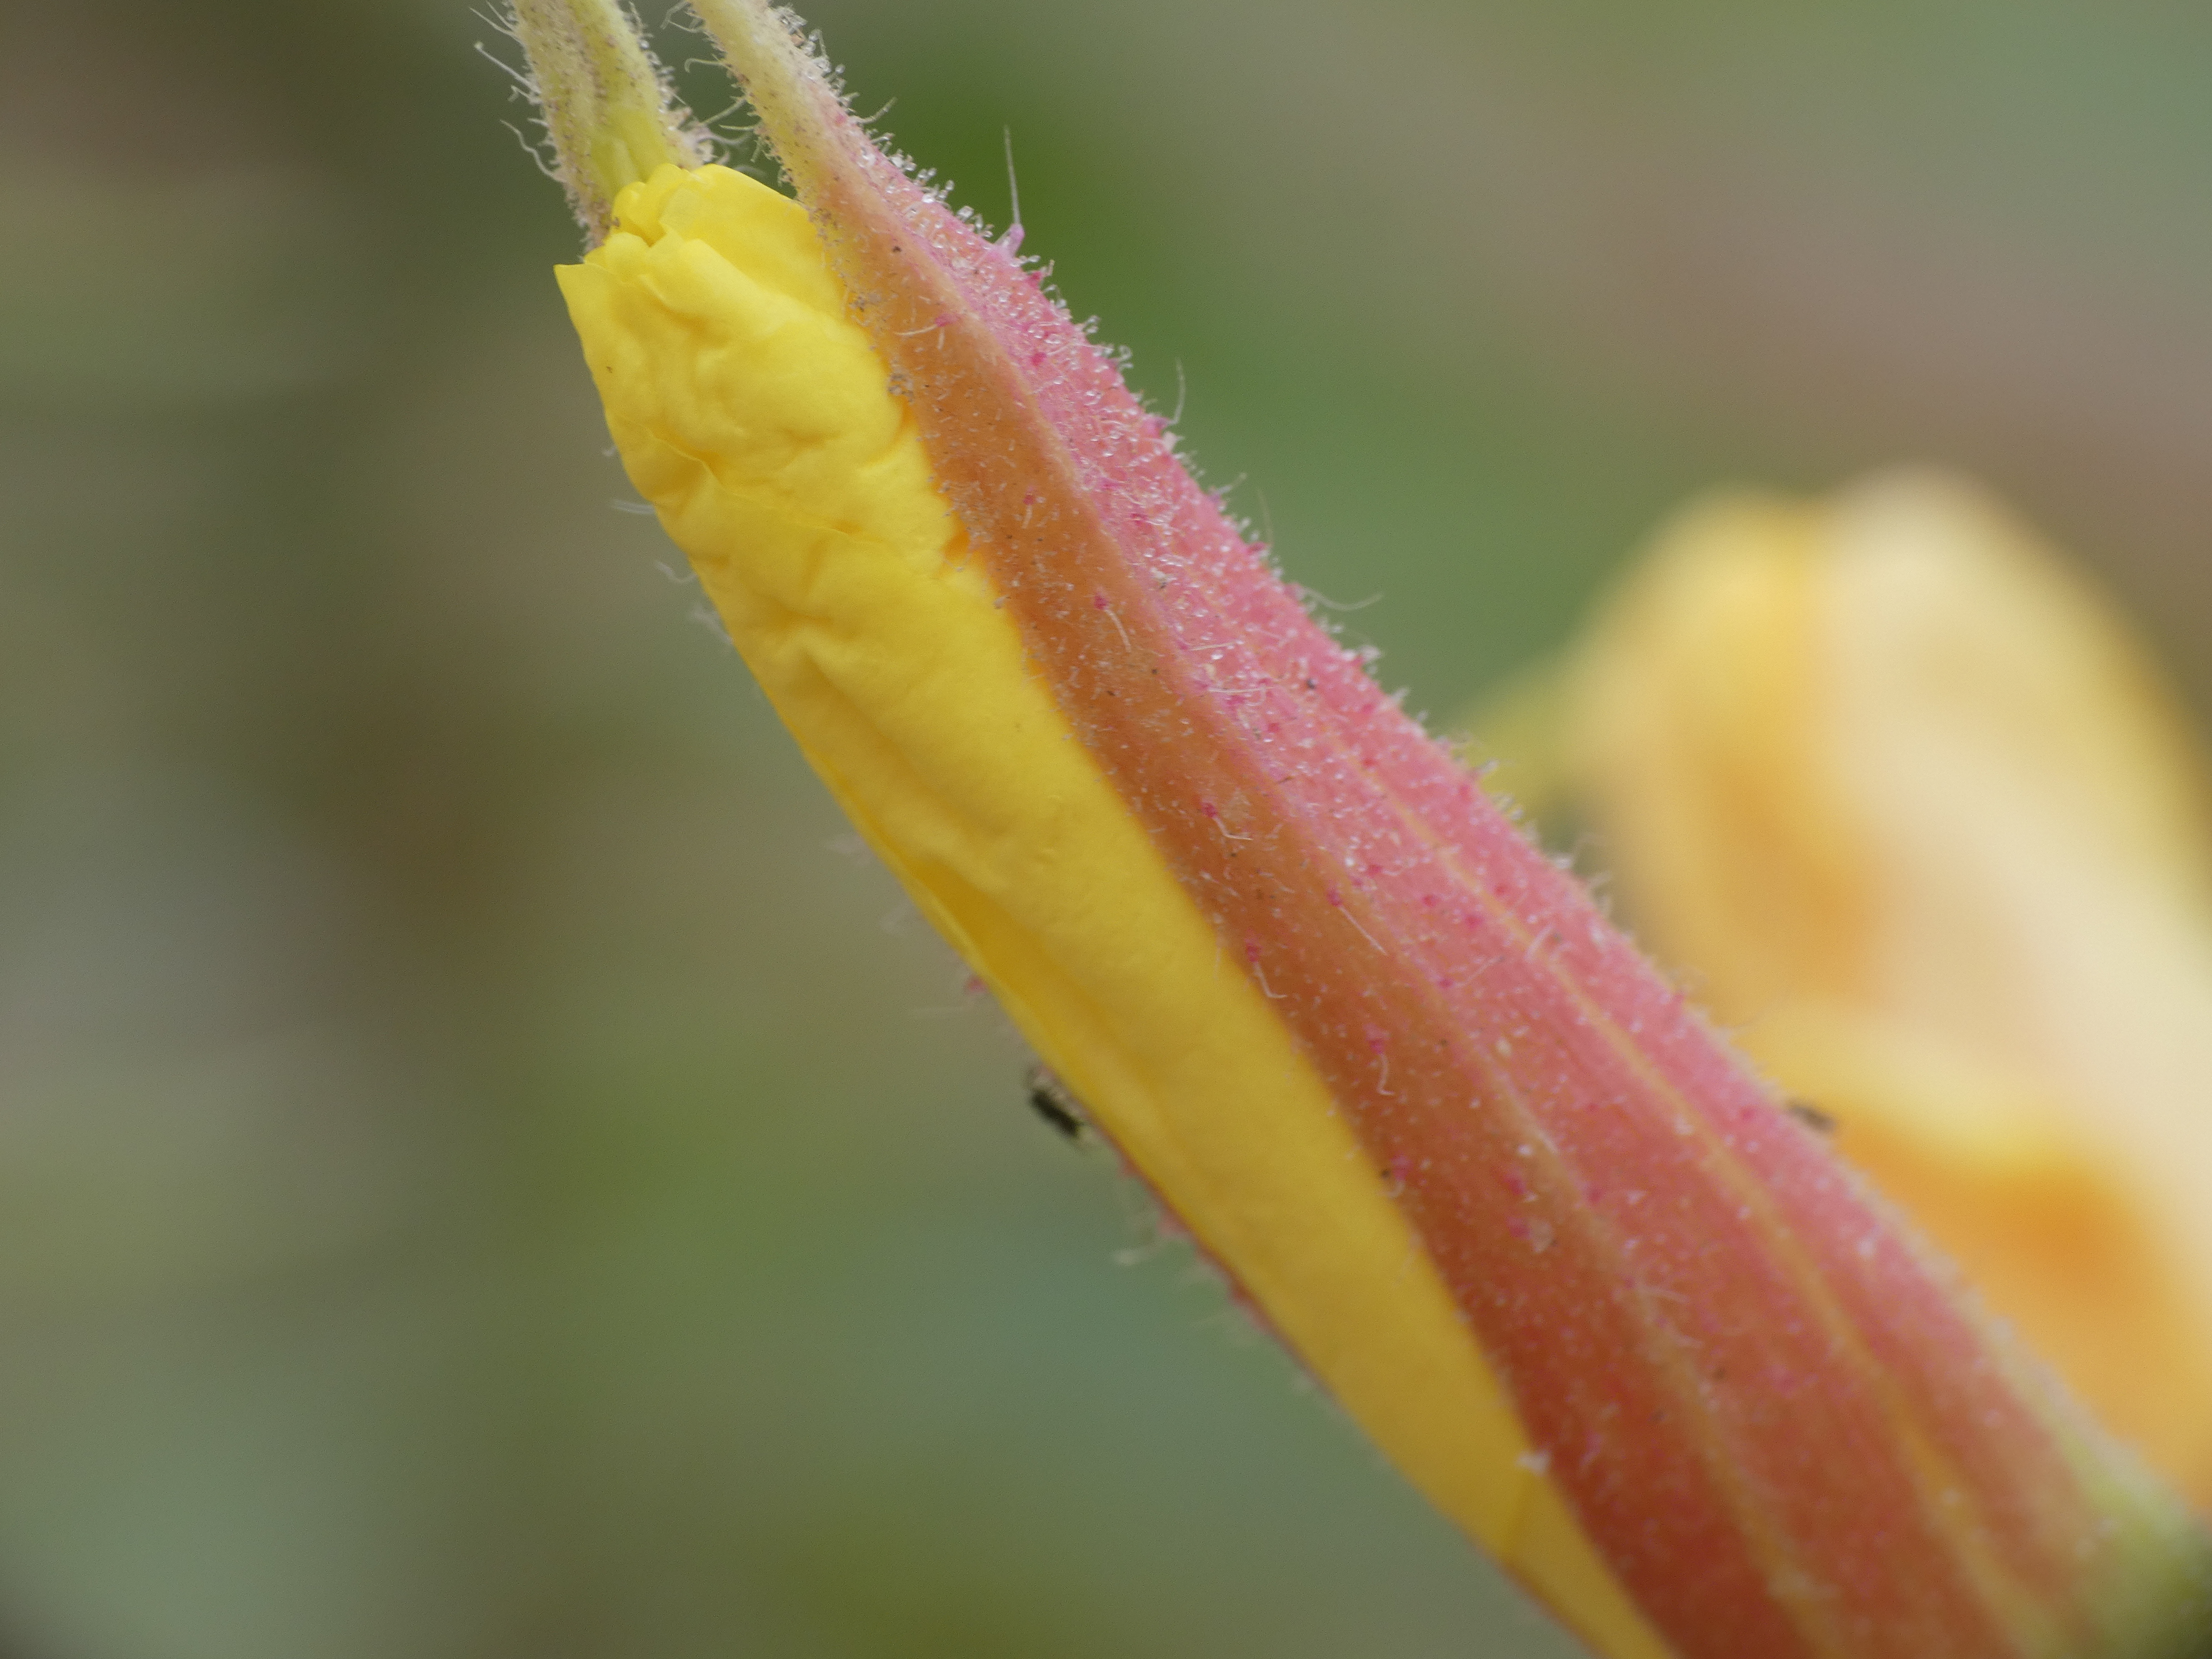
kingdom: Plantae
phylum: Tracheophyta
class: Magnoliopsida
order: Myrtales
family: Onagraceae
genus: Oenothera
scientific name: Oenothera glazioviana
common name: Kæmpe-natlys
